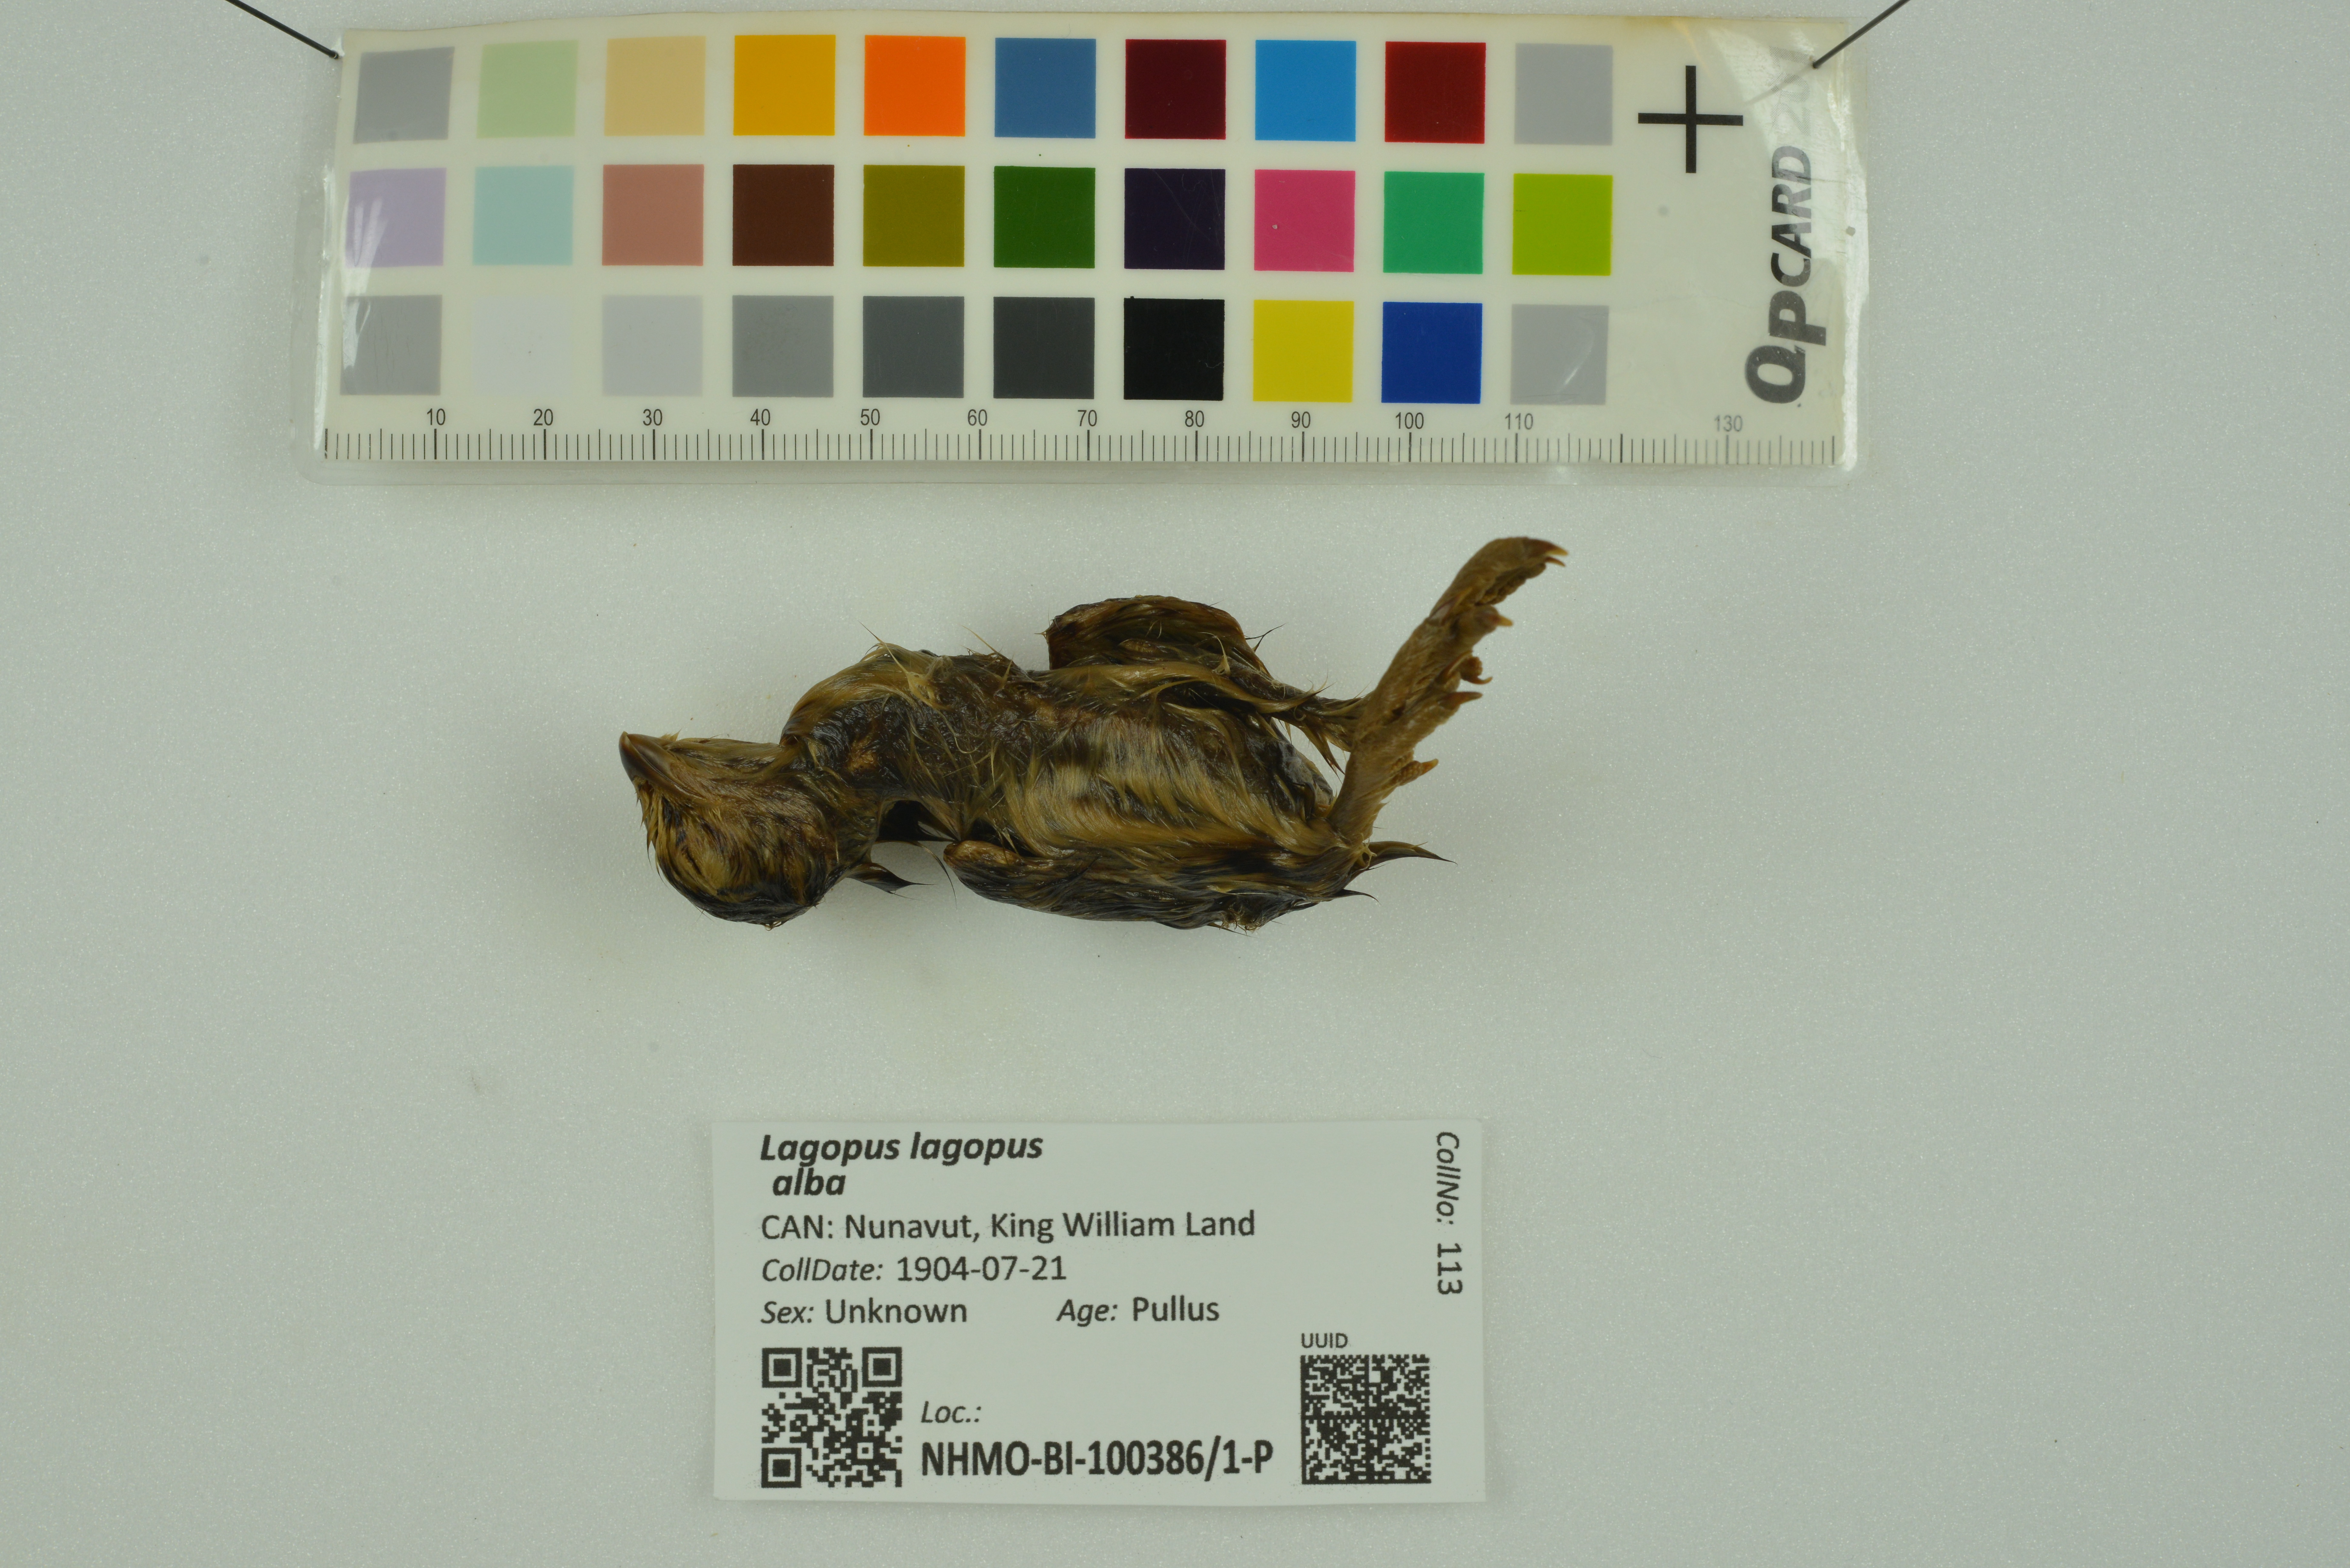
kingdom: Animalia
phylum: Chordata
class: Aves
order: Galliformes
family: Phasianidae
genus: Lagopus
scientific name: Lagopus lagopus
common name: Willow ptarmigan
